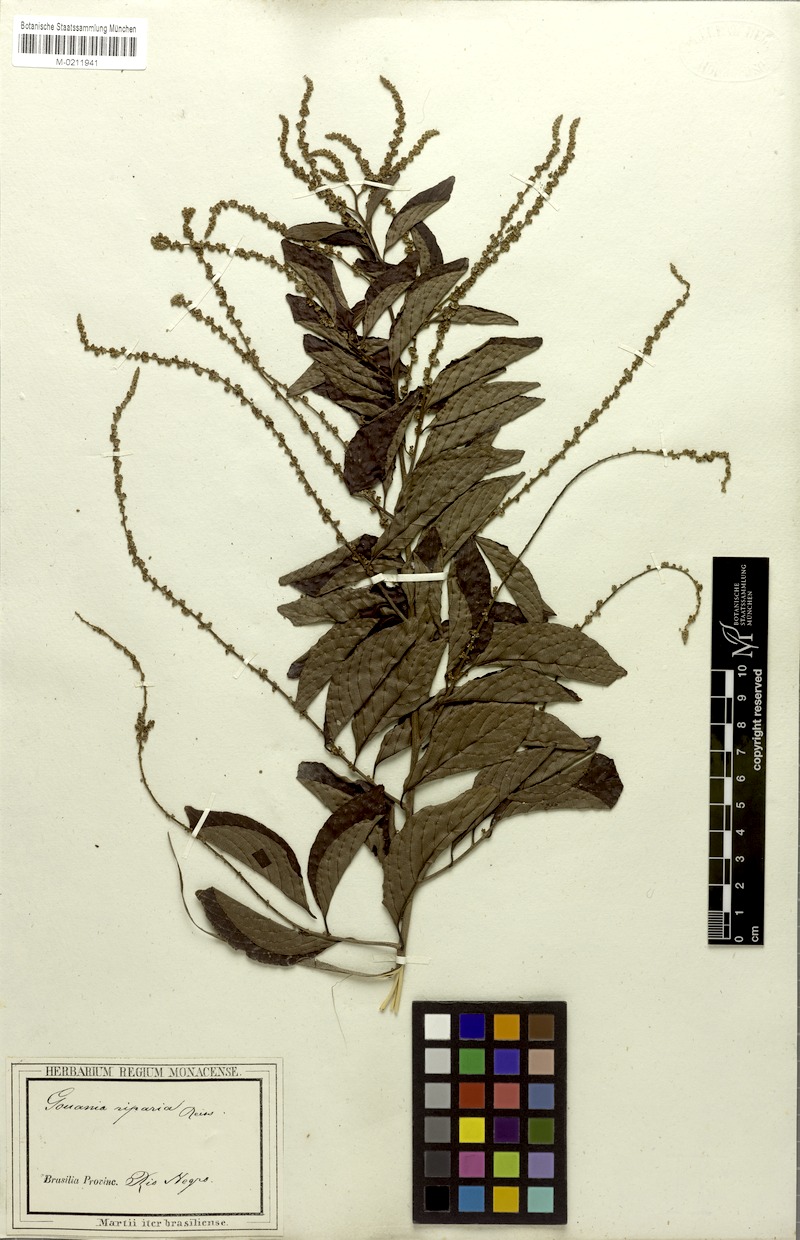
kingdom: Plantae
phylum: Tracheophyta
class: Magnoliopsida
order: Rosales
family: Rhamnaceae
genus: Gouania
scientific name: Gouania riparia
